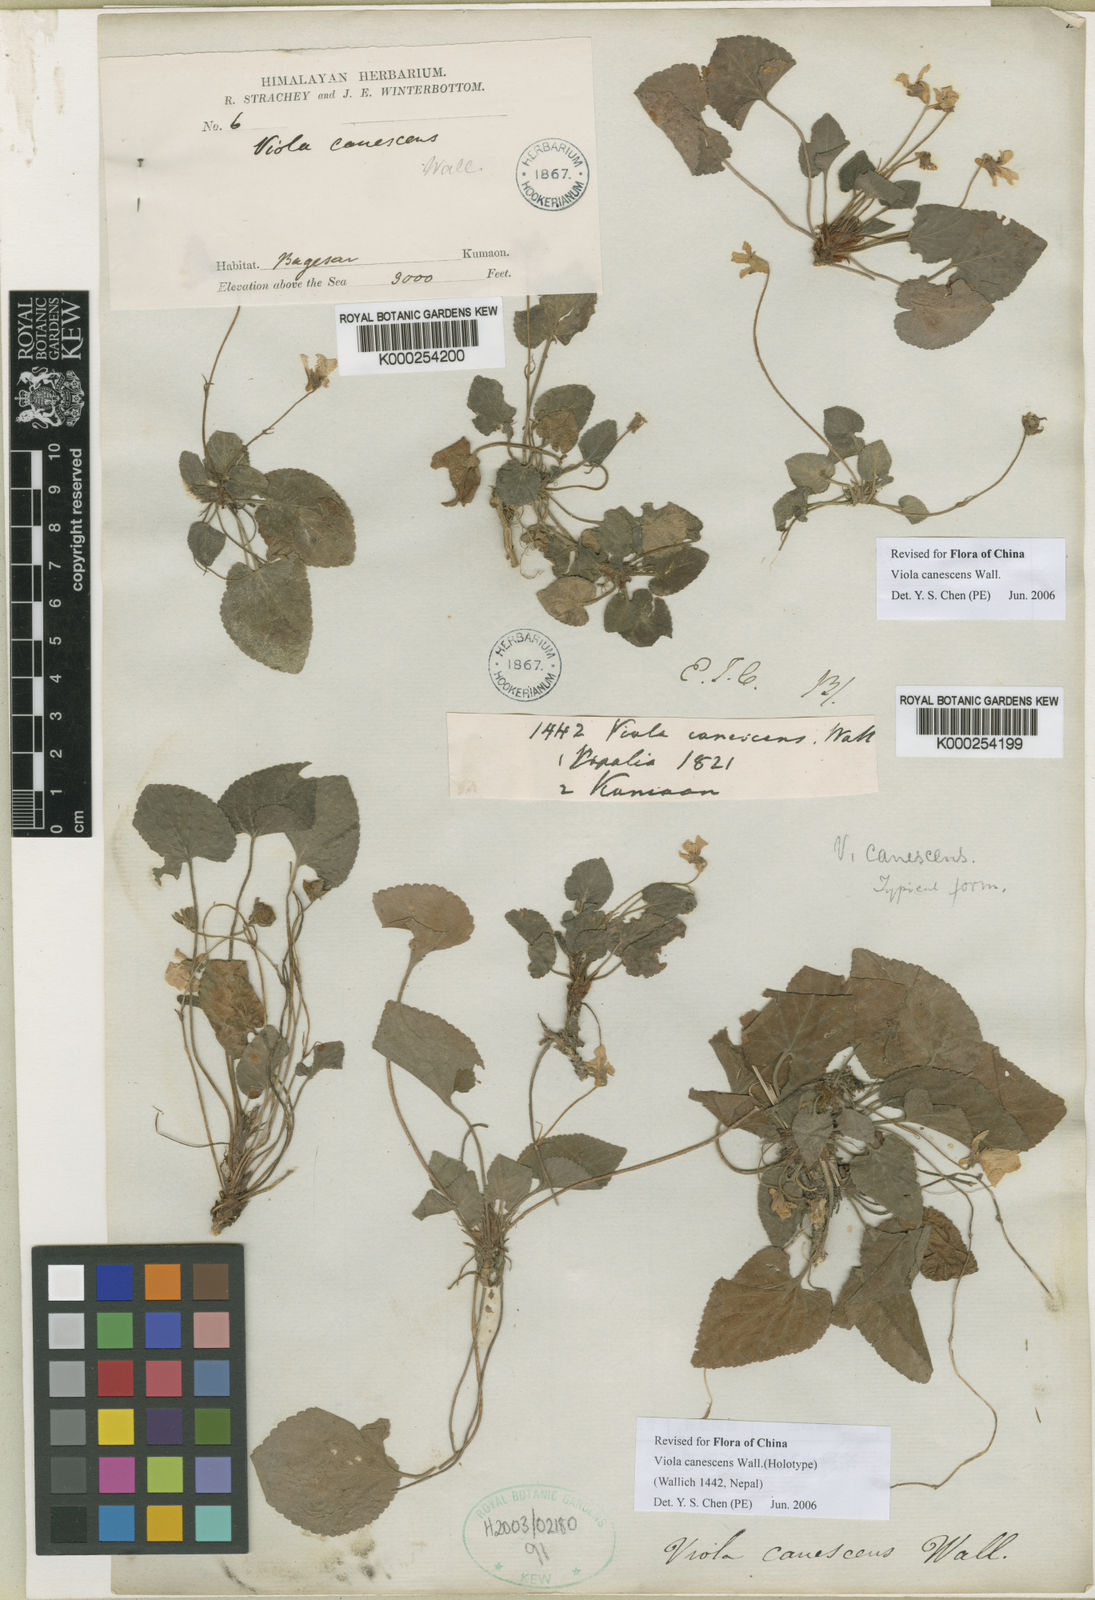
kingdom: Plantae
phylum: Tracheophyta
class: Magnoliopsida
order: Malpighiales
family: Violaceae
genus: Viola
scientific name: Viola canescens
